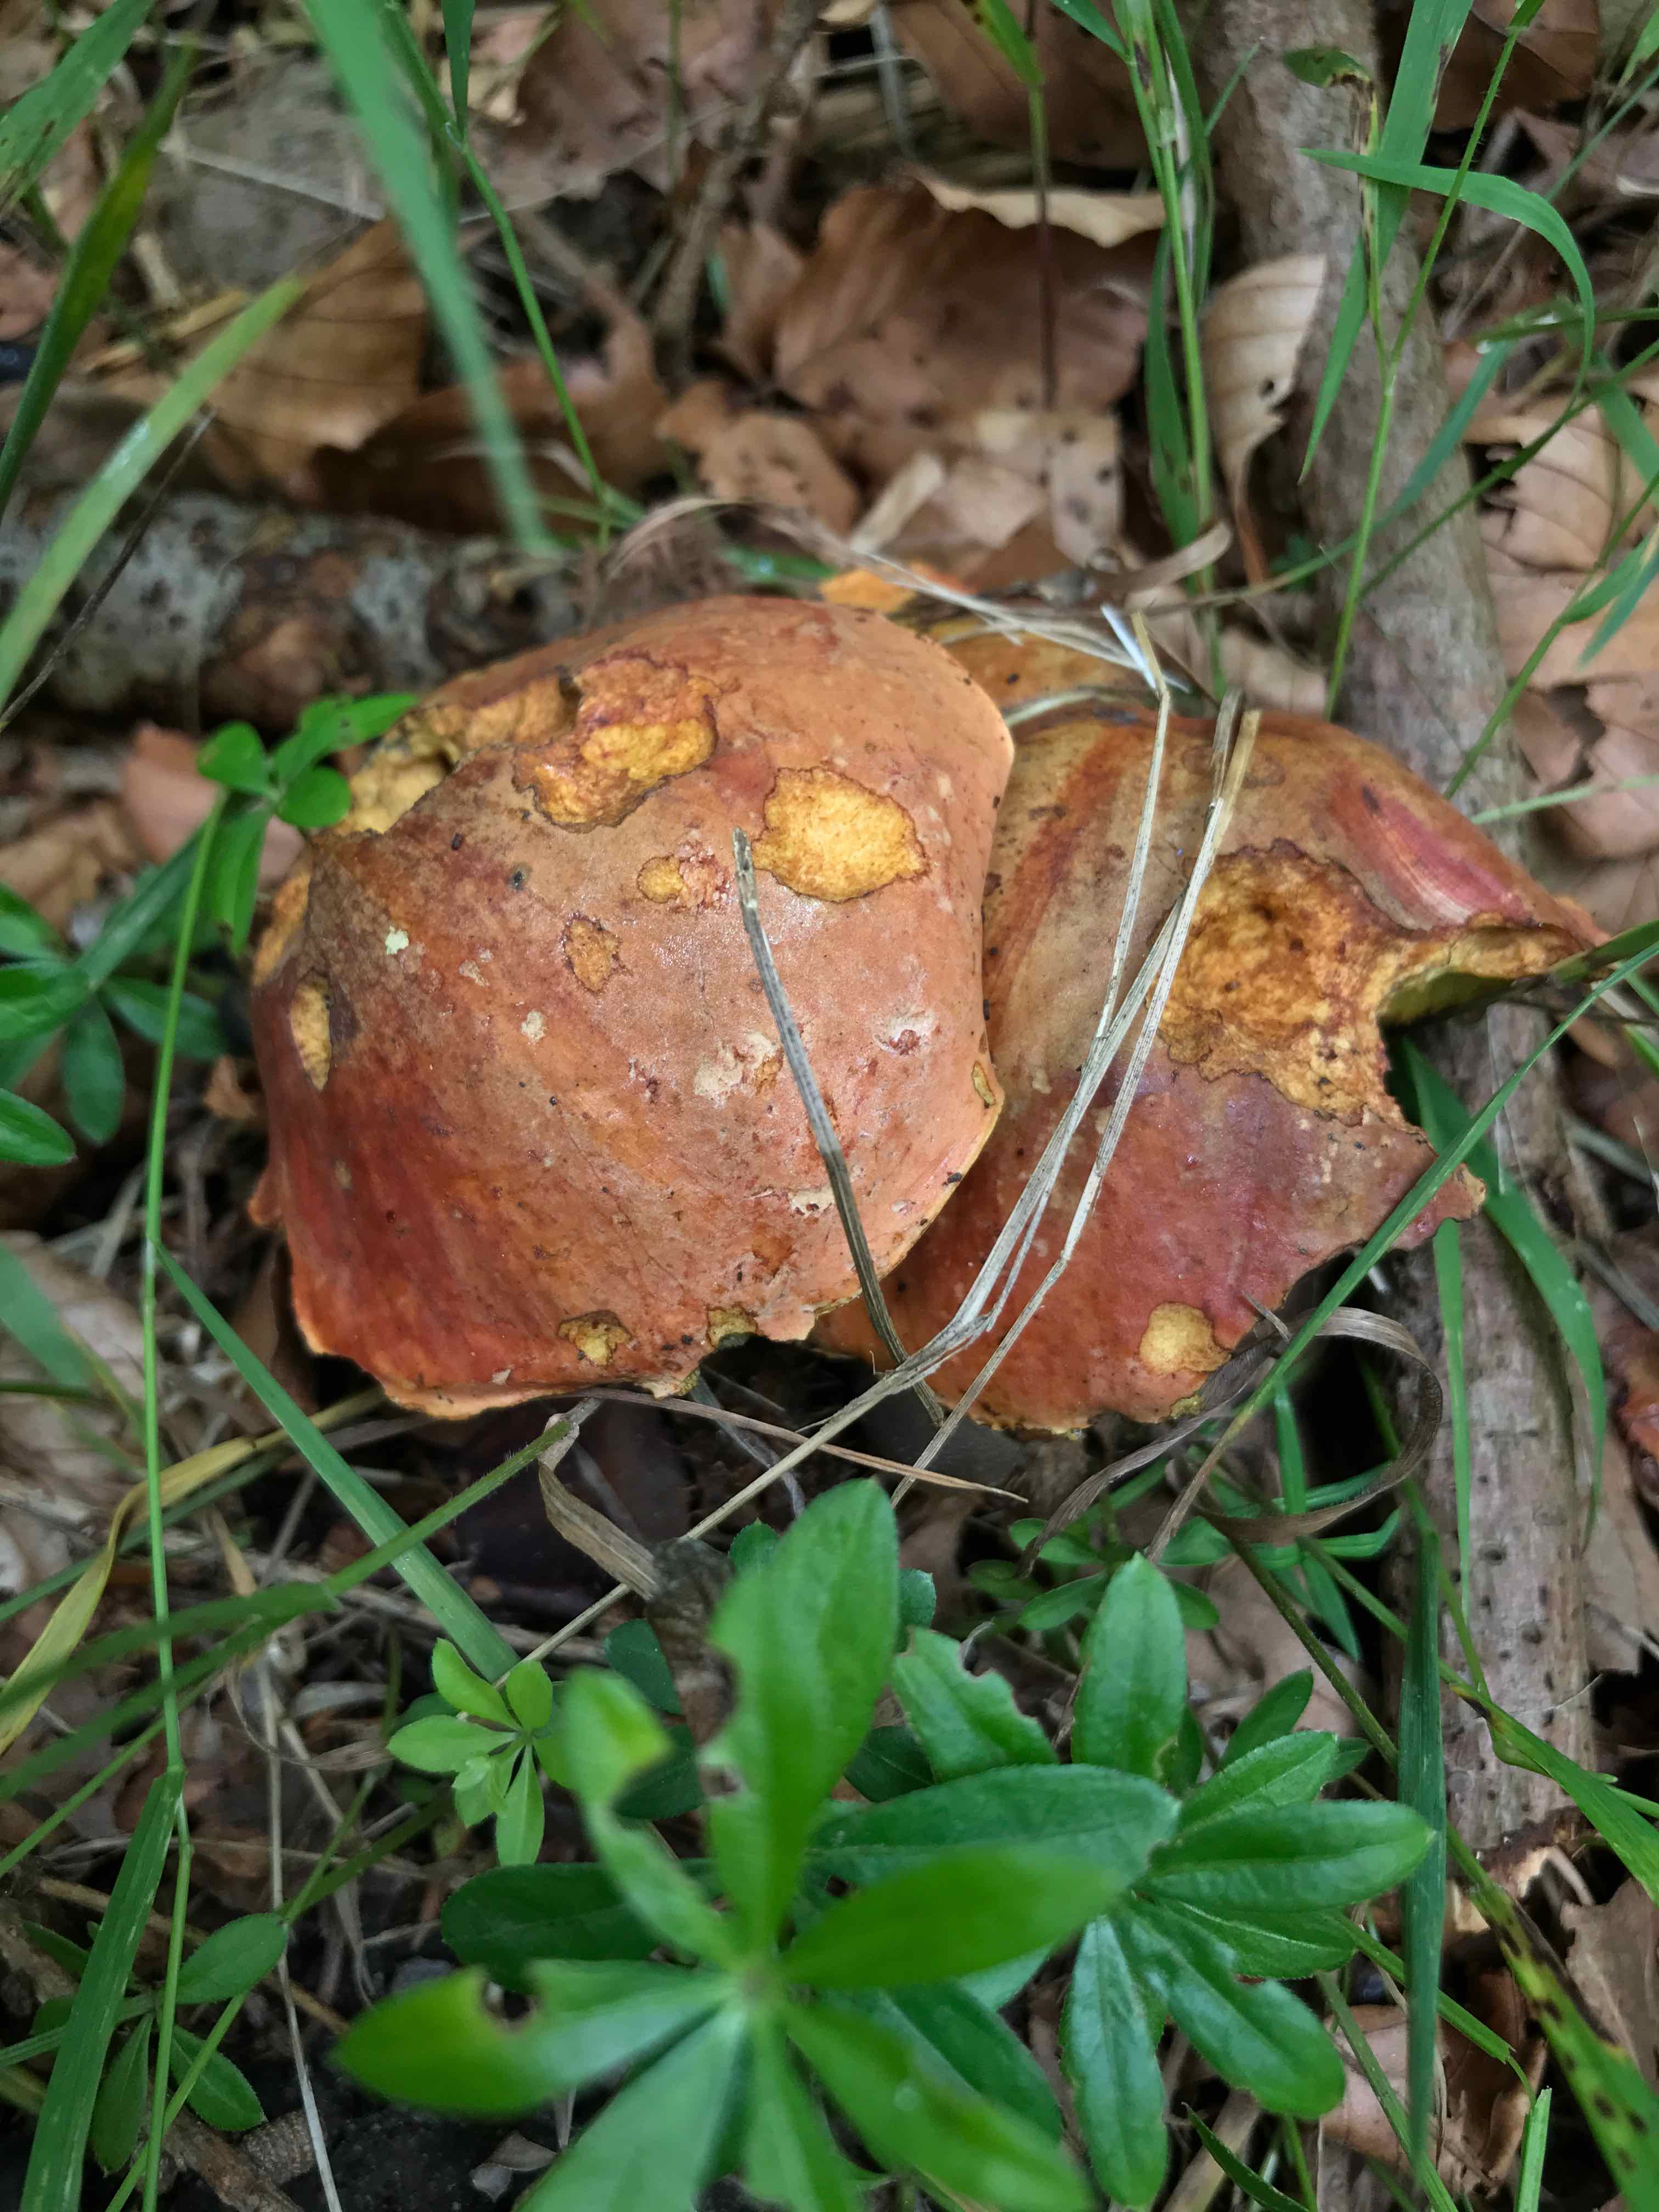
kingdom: Fungi
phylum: Basidiomycota
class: Agaricomycetes
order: Boletales
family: Boletaceae
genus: Suillellus
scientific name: Suillellus luridus
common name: netstokket indigorørhat
